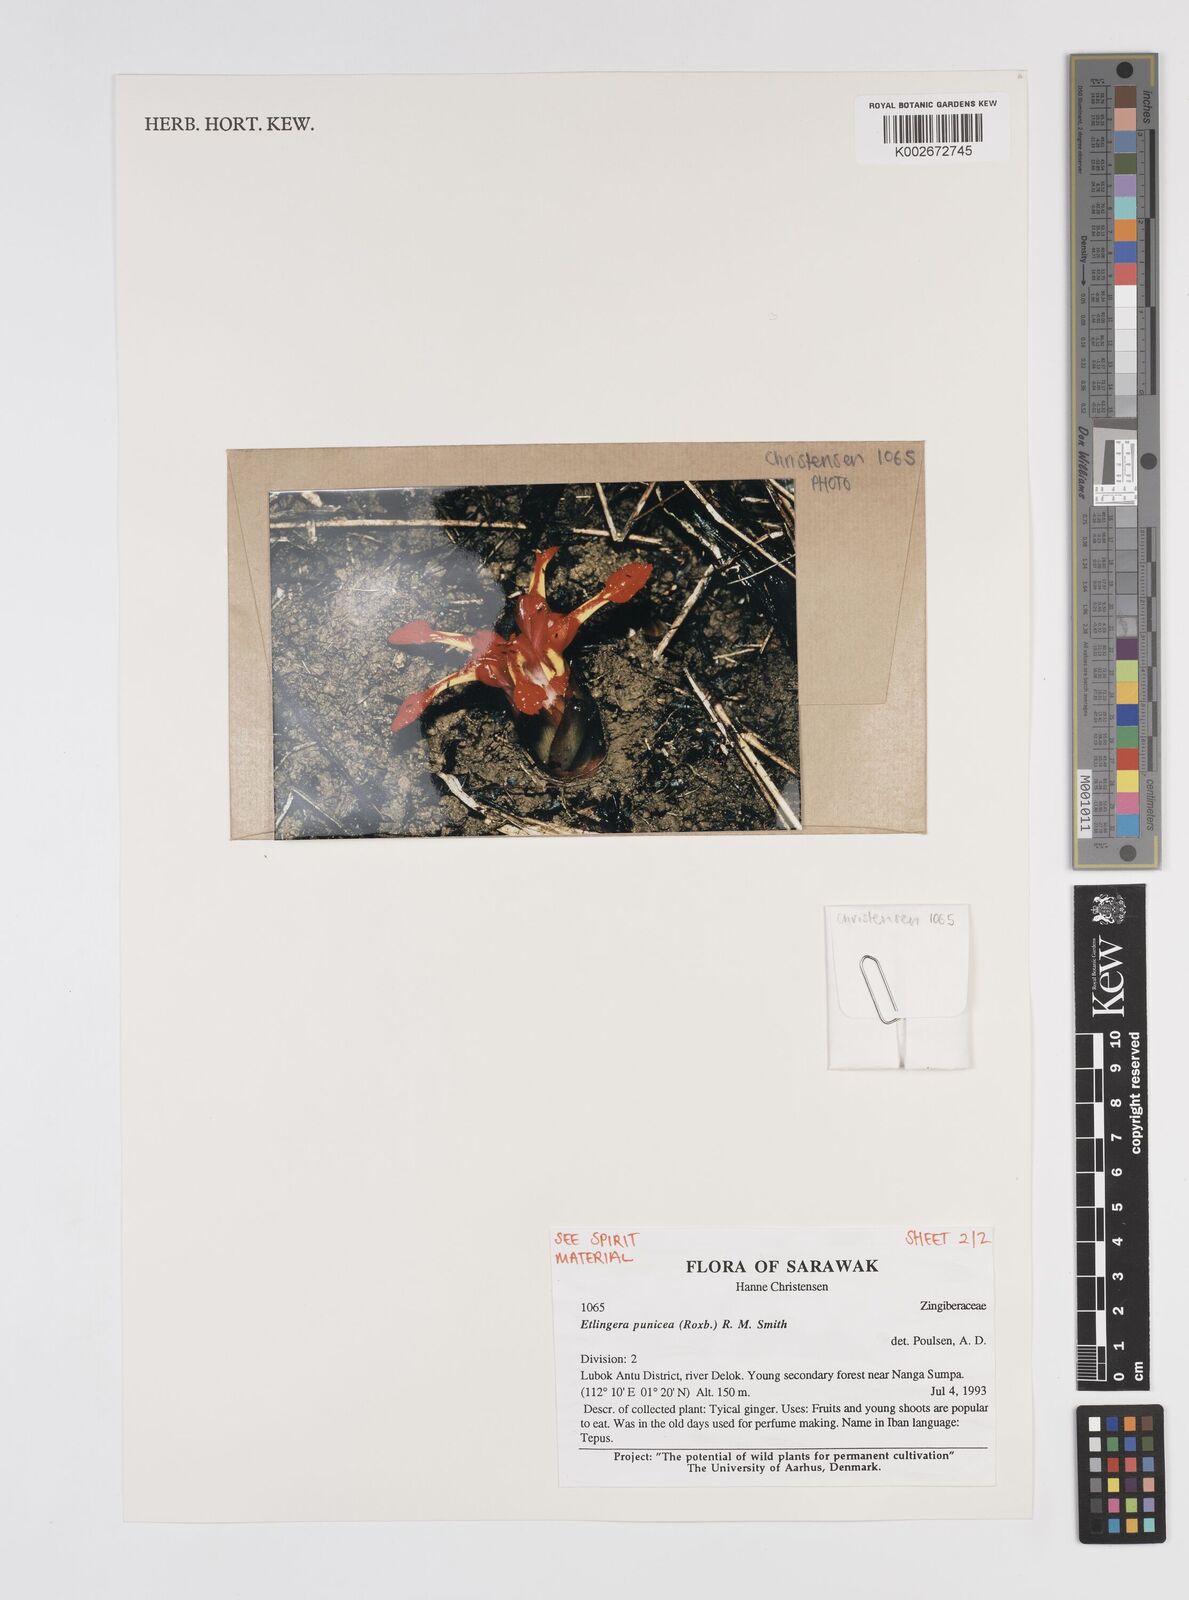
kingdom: Plantae
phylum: Tracheophyta
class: Liliopsida
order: Zingiberales
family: Zingiberaceae
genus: Etlingera
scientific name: Etlingera punicea
